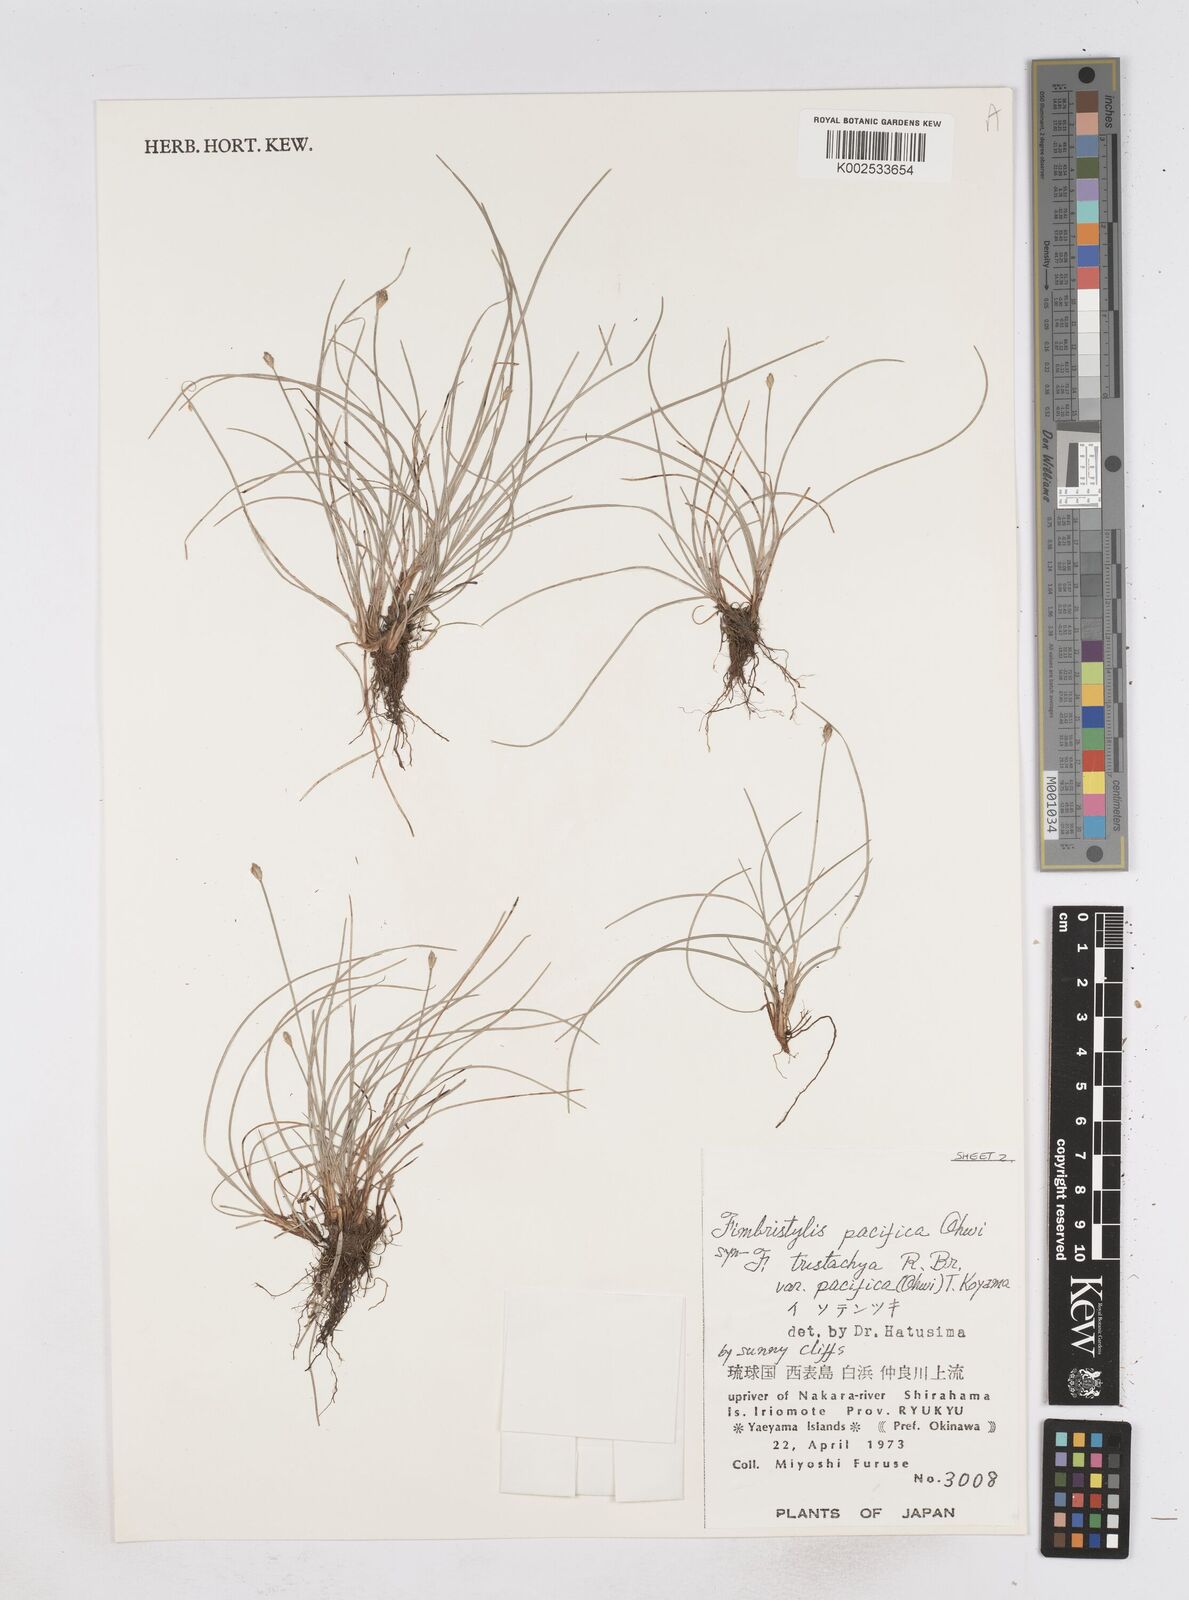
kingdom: Plantae
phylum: Tracheophyta
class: Liliopsida
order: Poales
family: Cyperaceae
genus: Fimbristylis
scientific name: Fimbristylis tristachya
